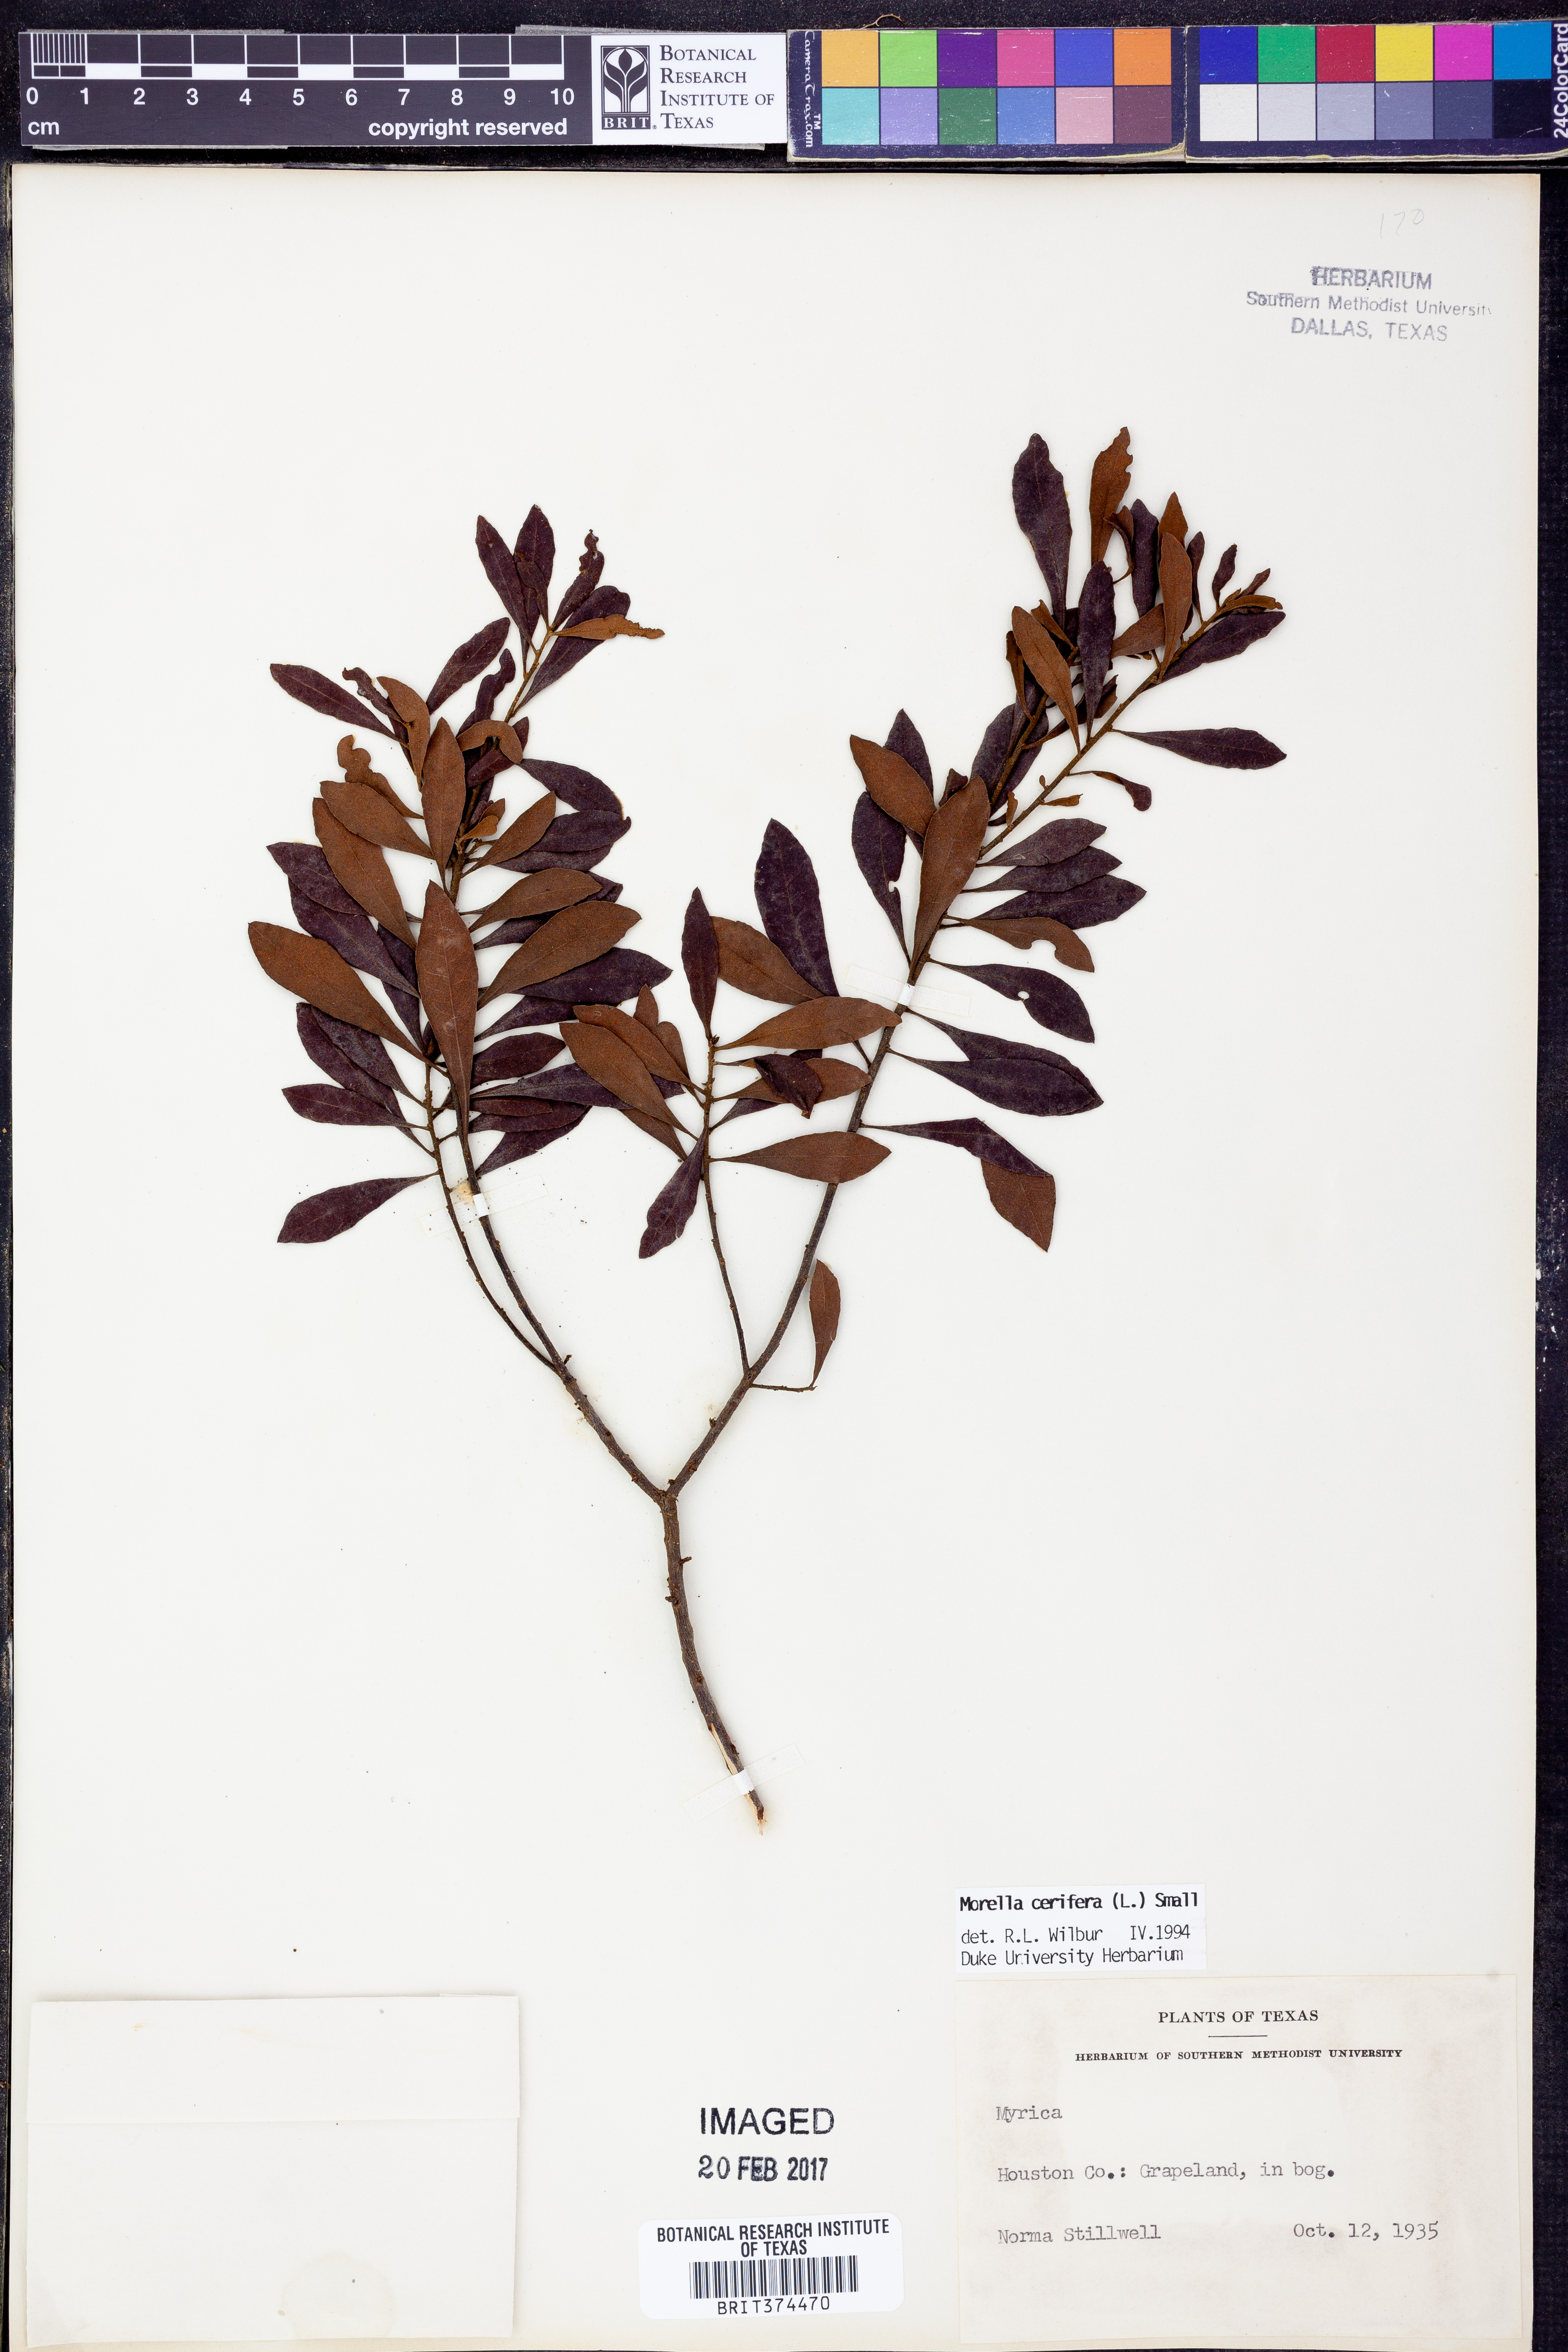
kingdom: Plantae
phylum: Tracheophyta
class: Magnoliopsida
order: Fagales
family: Myricaceae
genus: Morella
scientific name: Morella cerifera
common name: Wax myrtle
